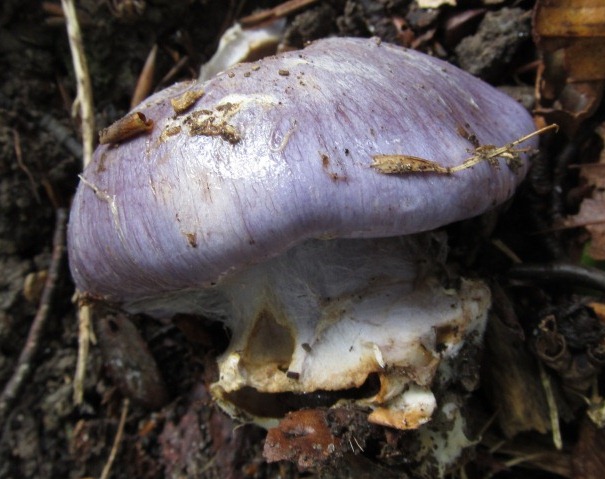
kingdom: Fungi
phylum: Basidiomycota
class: Agaricomycetes
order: Agaricales
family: Cortinariaceae
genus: Cortinarius
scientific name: Cortinarius caerulescens
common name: blåkødet slørhat
